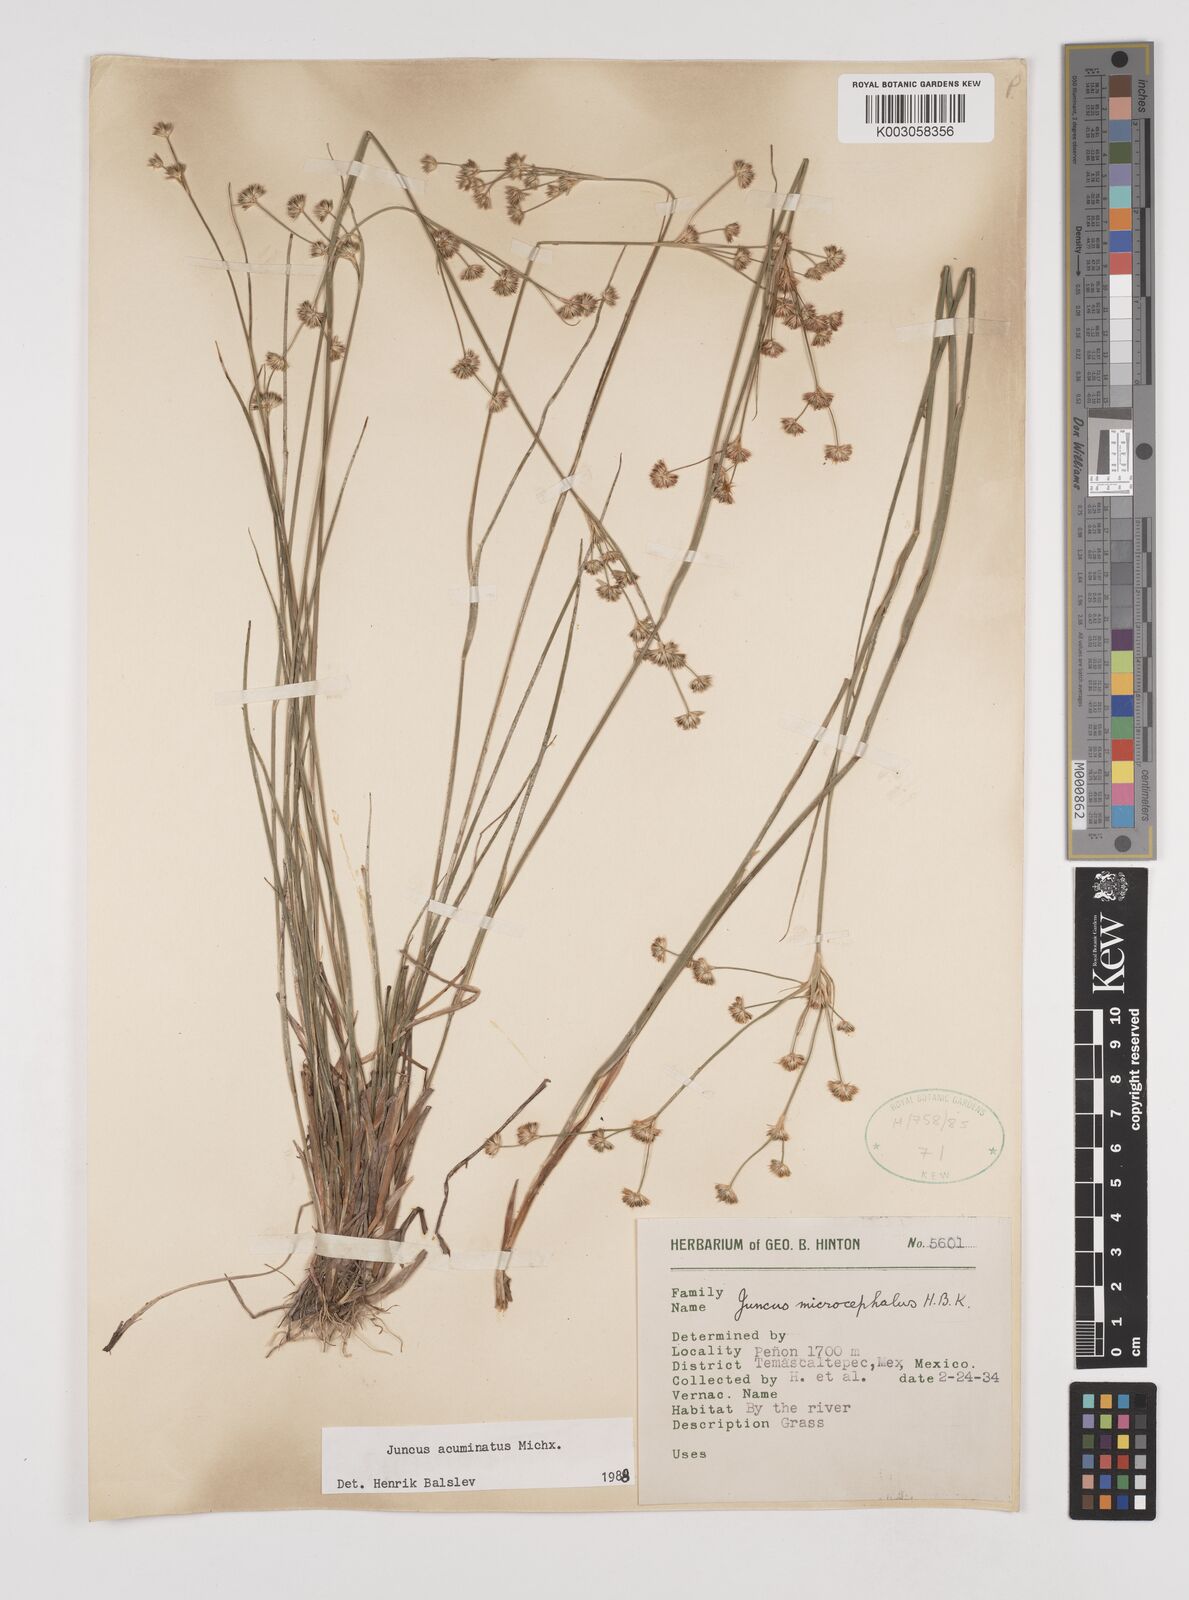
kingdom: Plantae
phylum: Tracheophyta
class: Liliopsida
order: Poales
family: Juncaceae
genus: Juncus
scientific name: Juncus acuminatus
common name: Knotty-leaved rush
